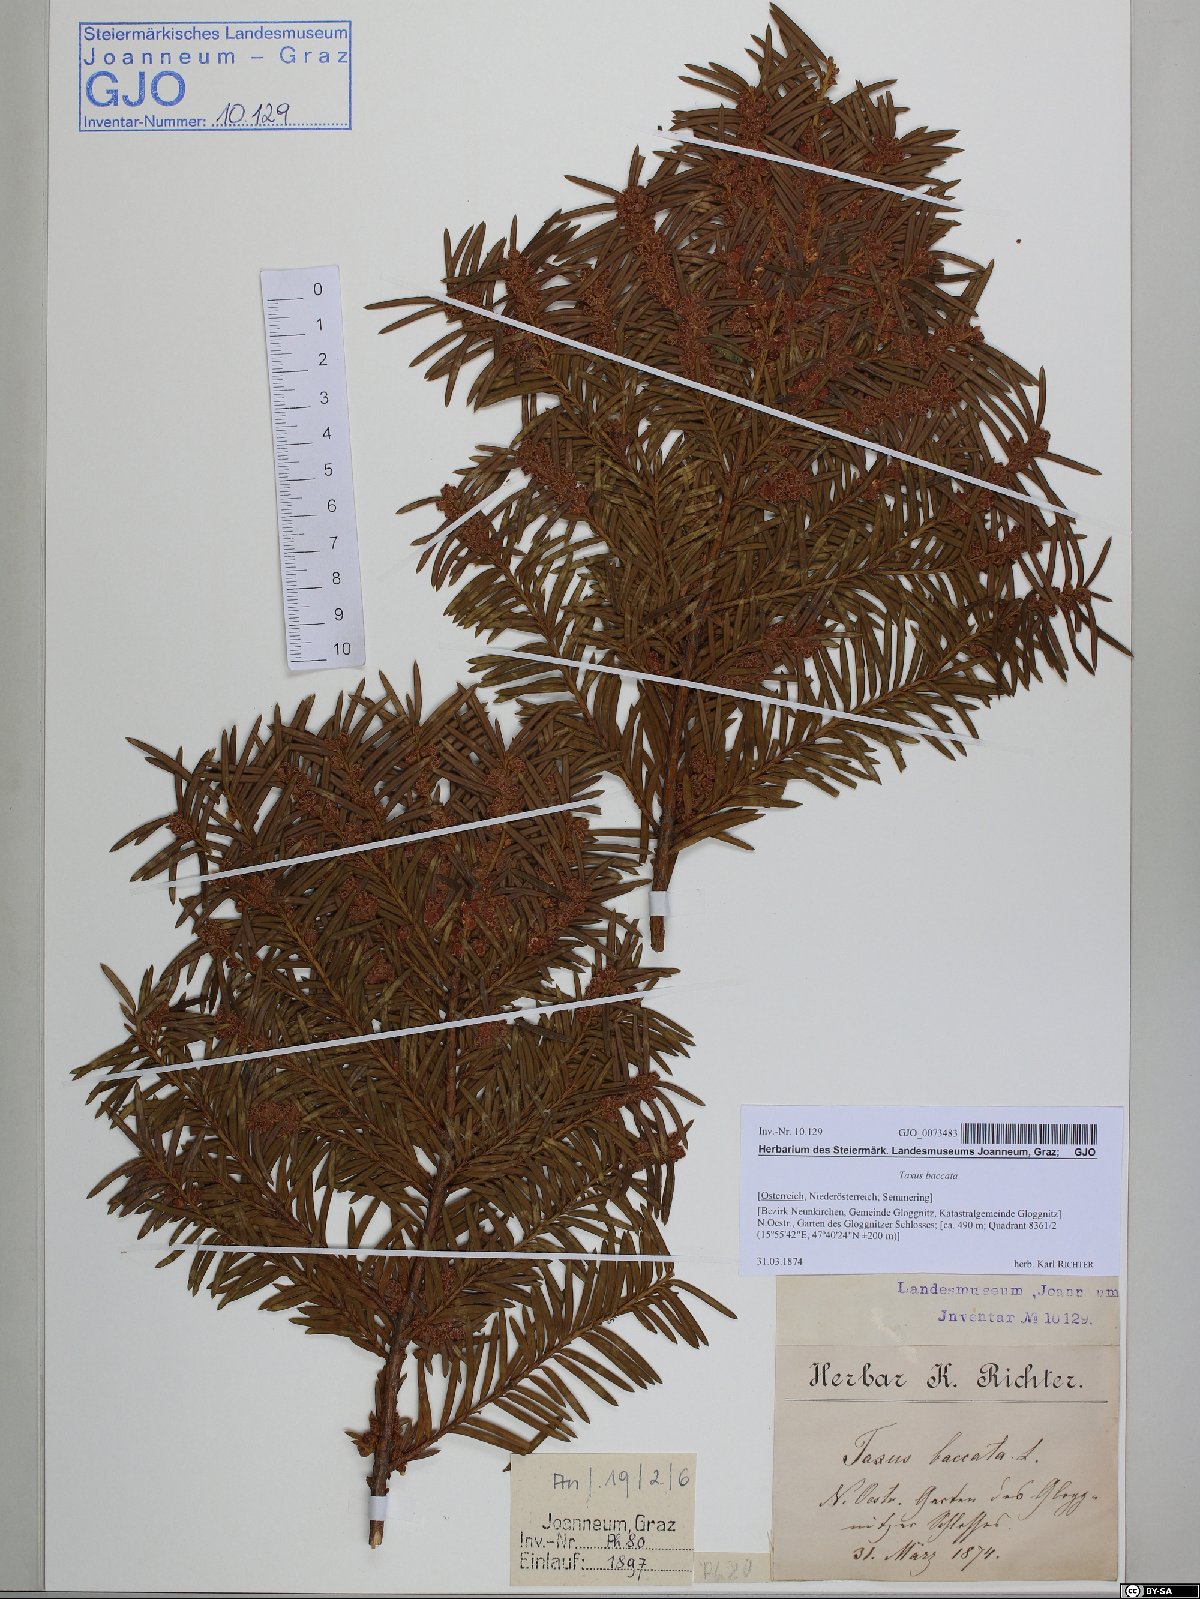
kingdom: Plantae
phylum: Tracheophyta
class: Pinopsida
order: Pinales
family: Taxaceae
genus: Taxus
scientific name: Taxus baccata
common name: Yew
